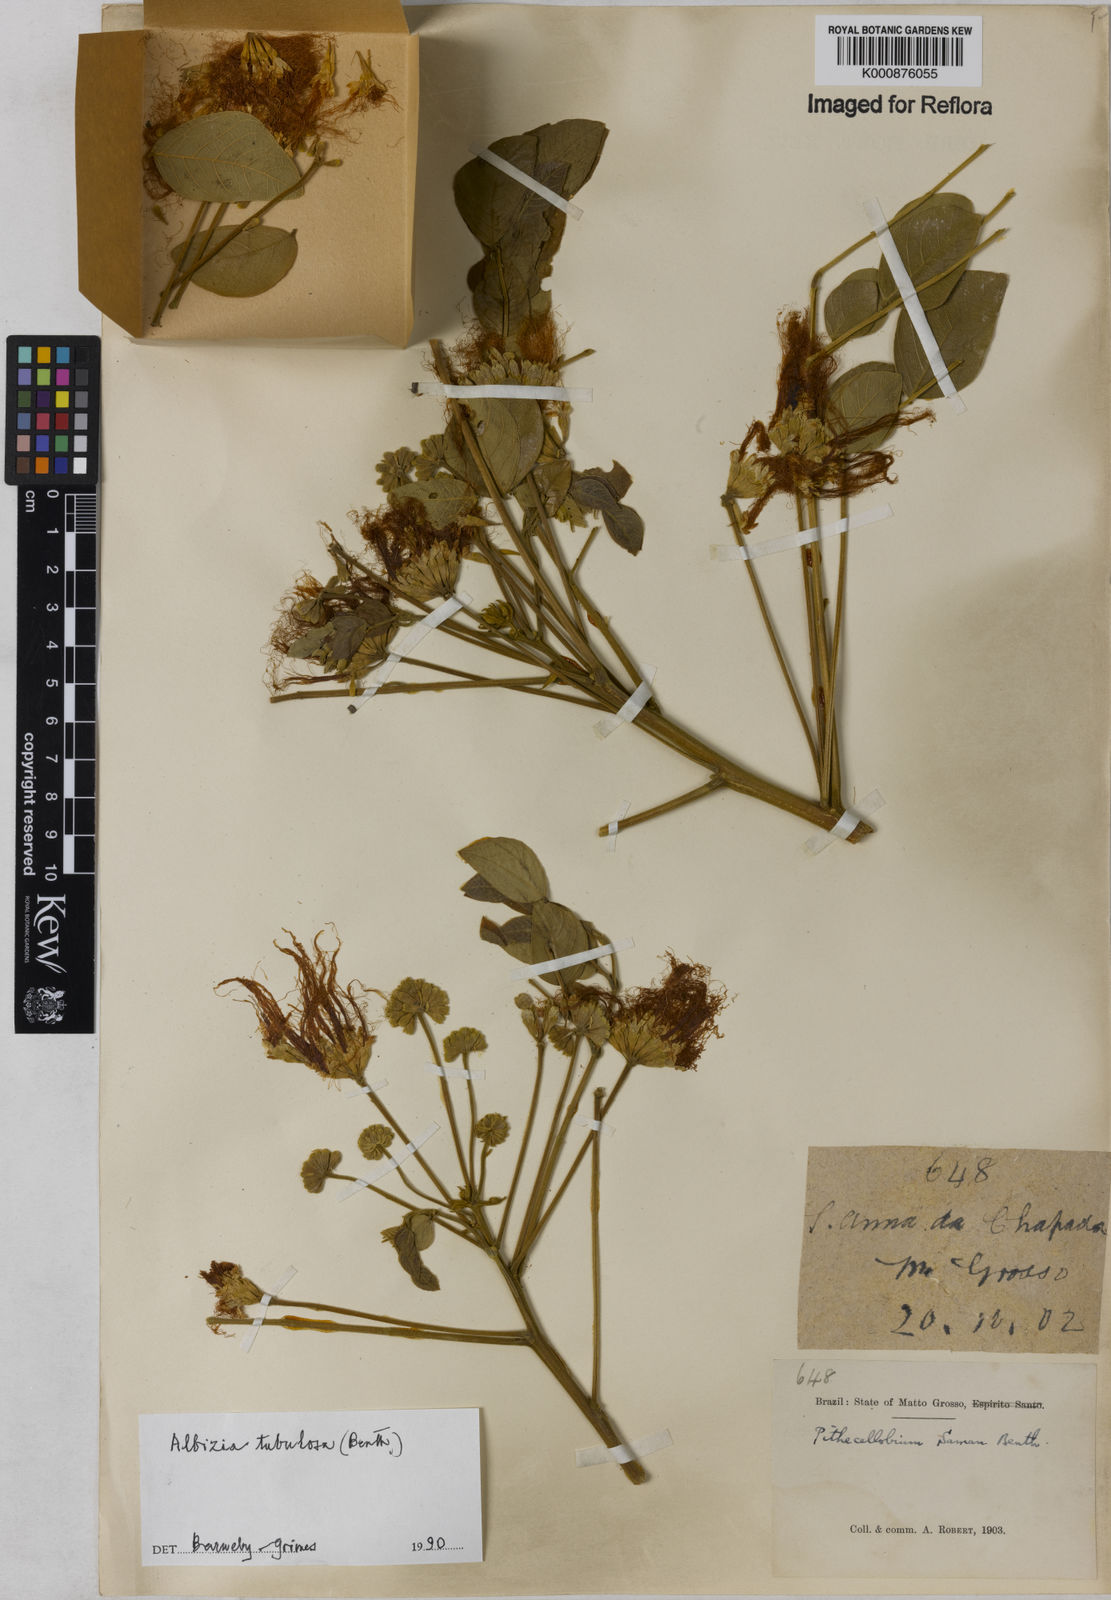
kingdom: Plantae
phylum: Tracheophyta
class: Magnoliopsida
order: Fabales
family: Fabaceae
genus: Samanea
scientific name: Samanea tubulosa
